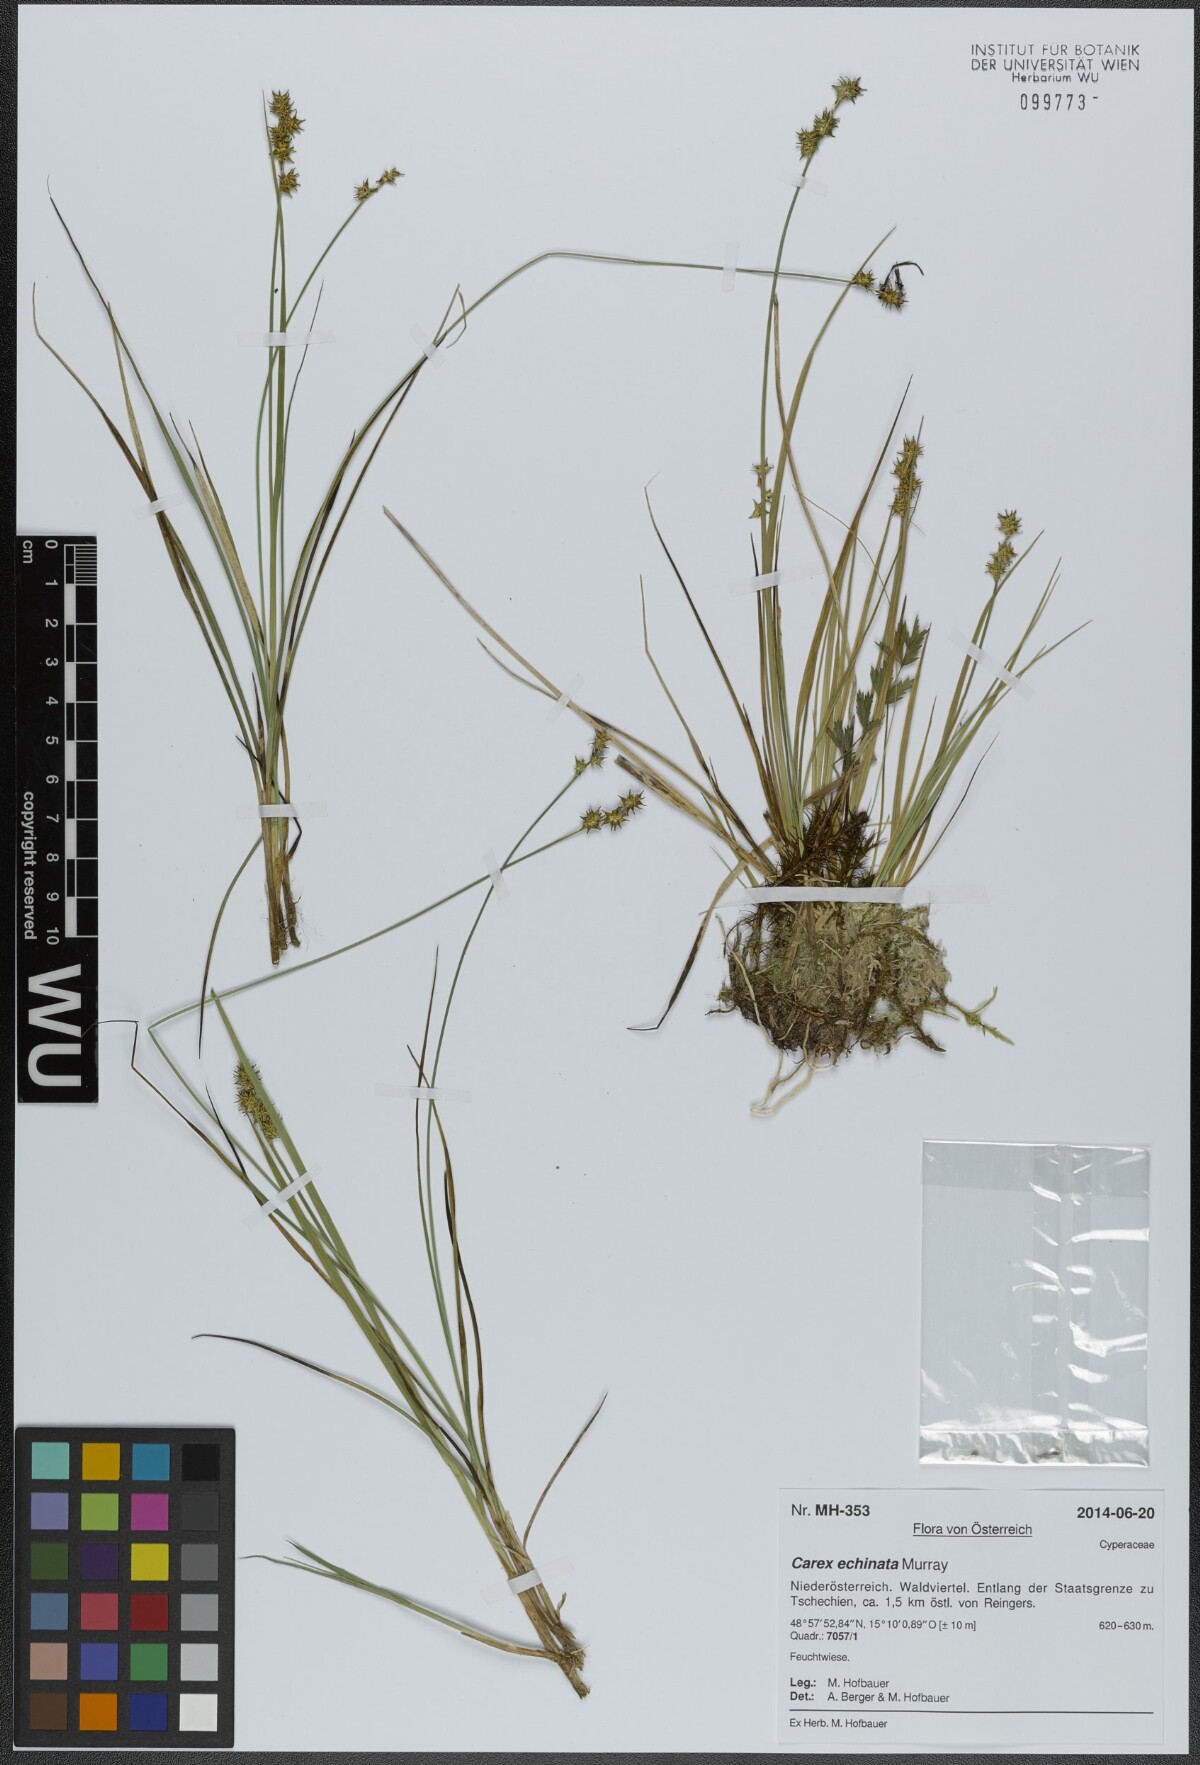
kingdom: Plantae
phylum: Tracheophyta
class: Liliopsida
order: Poales
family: Cyperaceae
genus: Carex
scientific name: Carex echinata
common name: Star sedge
